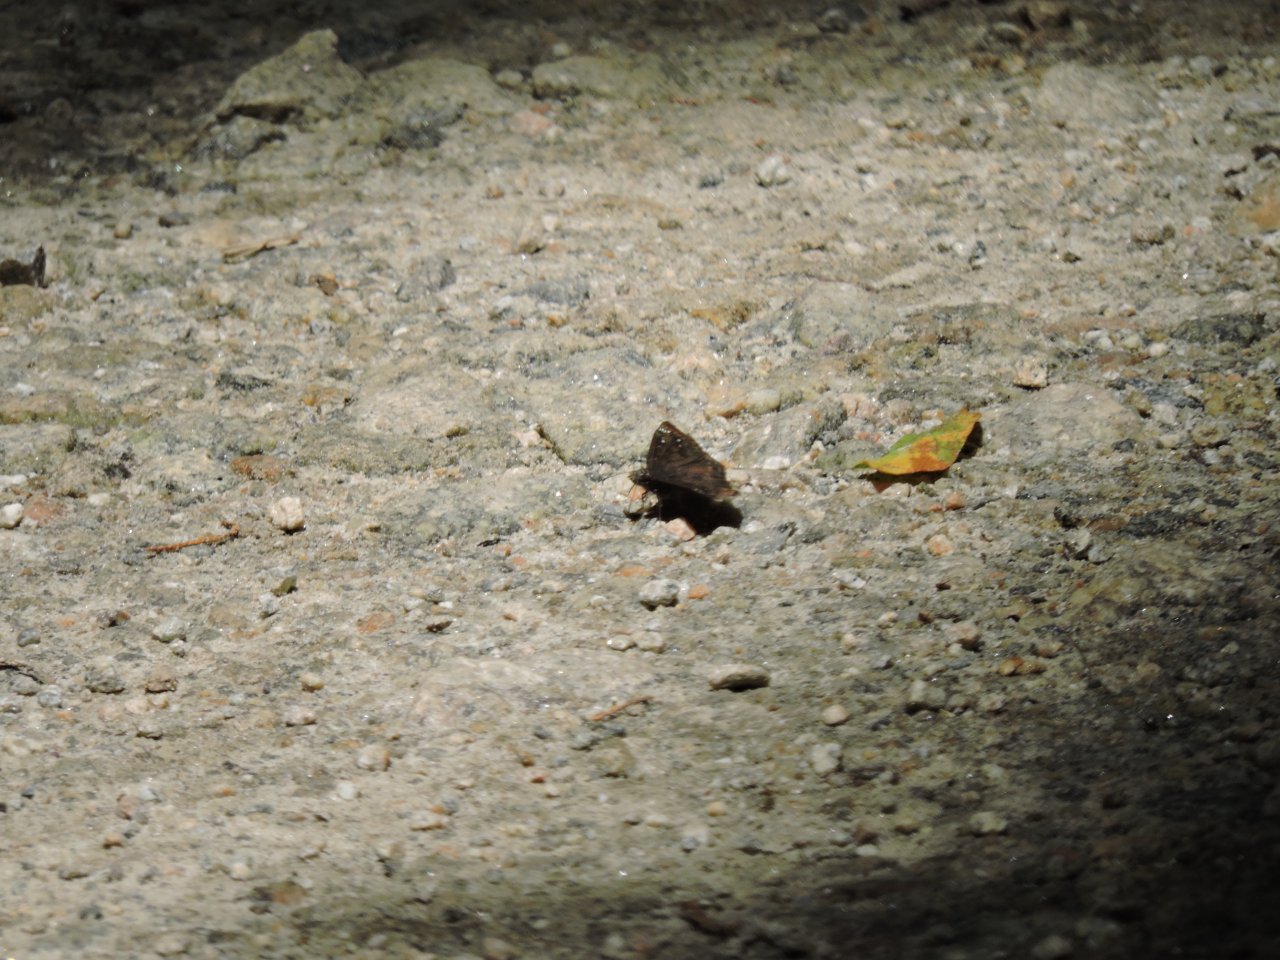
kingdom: Animalia
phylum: Arthropoda
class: Insecta
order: Lepidoptera
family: Hesperiidae
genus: Gesta
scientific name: Gesta
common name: Horace's Duskywing
